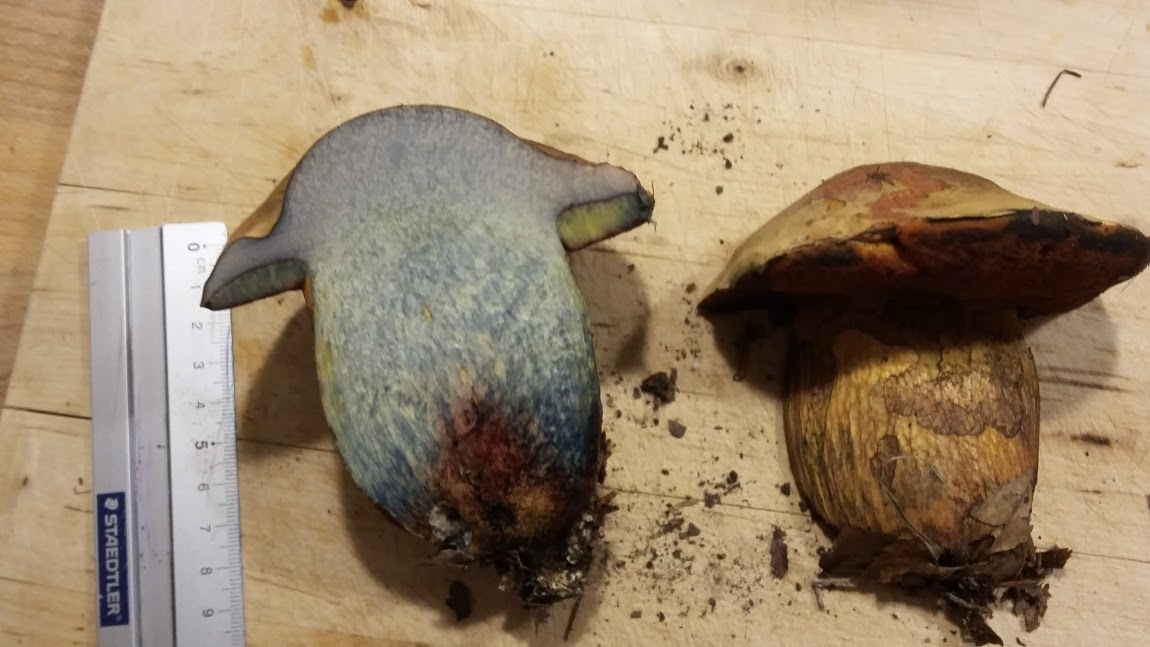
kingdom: Fungi
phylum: Basidiomycota
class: Agaricomycetes
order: Boletales
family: Boletaceae
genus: Suillellus
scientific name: Suillellus luridus
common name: netstokket indigorørhat
